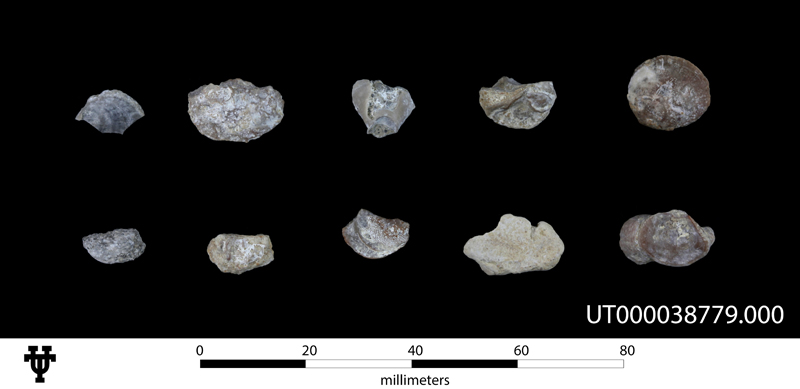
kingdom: Animalia
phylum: Mollusca
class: Bivalvia
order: Ostreida
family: Gryphaeidae
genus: Ceratostreon
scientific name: Ceratostreon
